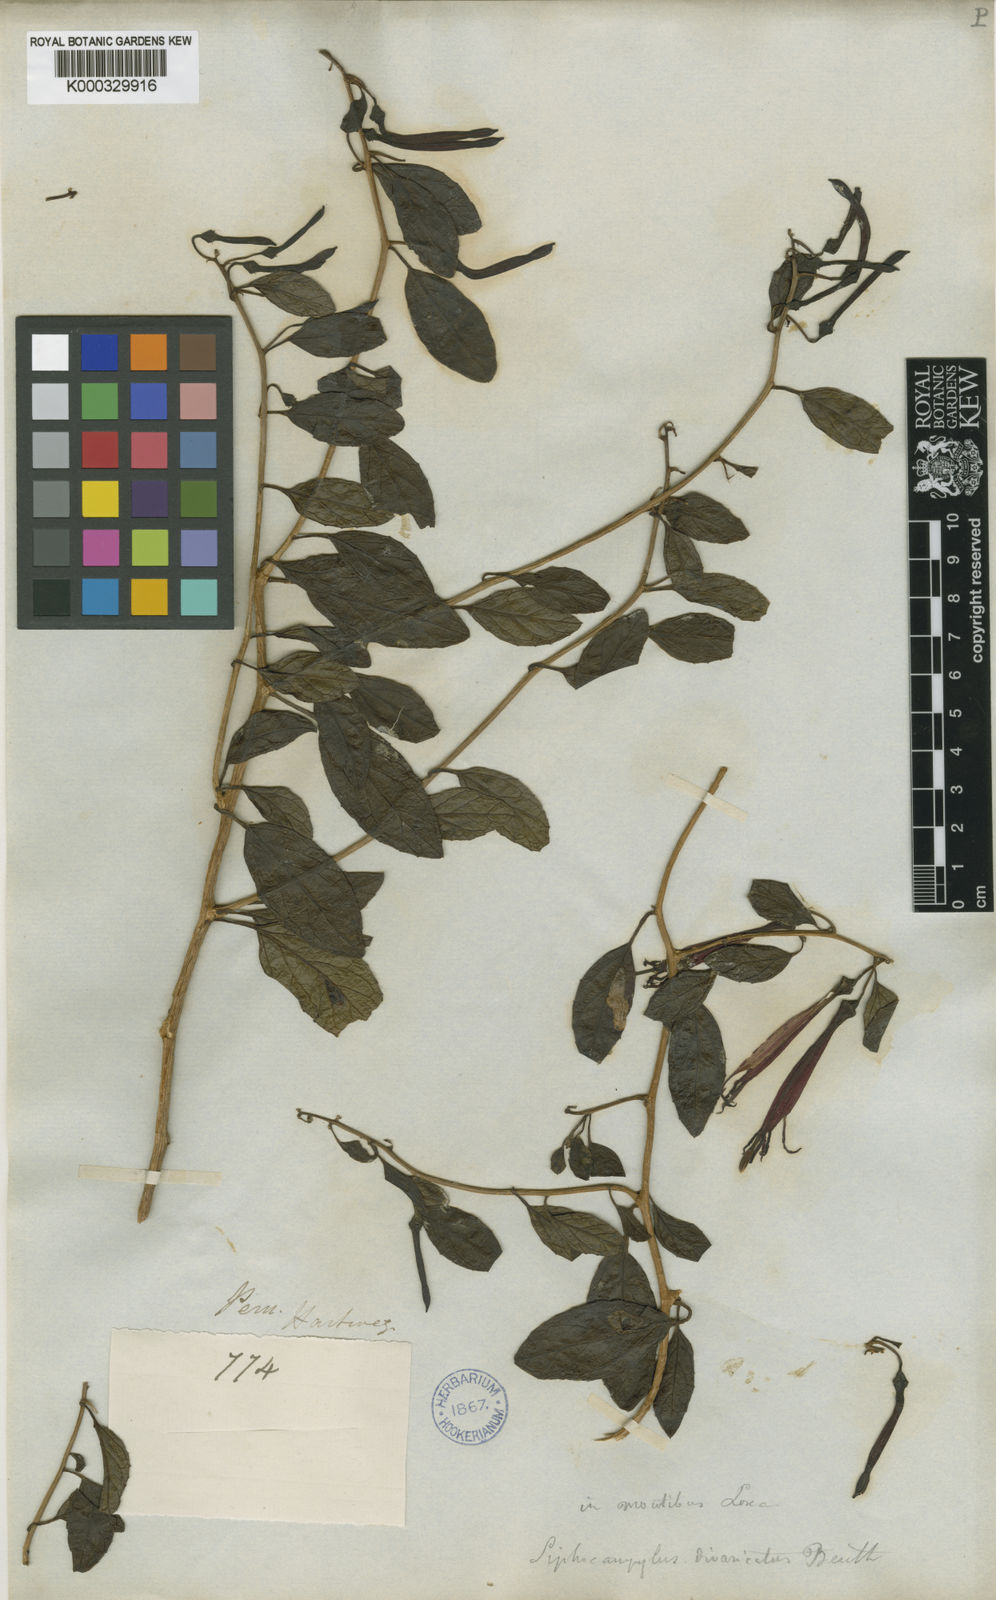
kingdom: Plantae
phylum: Tracheophyta
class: Magnoliopsida
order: Asterales
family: Campanulaceae
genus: Siphocampylus
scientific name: Siphocampylus scandens
